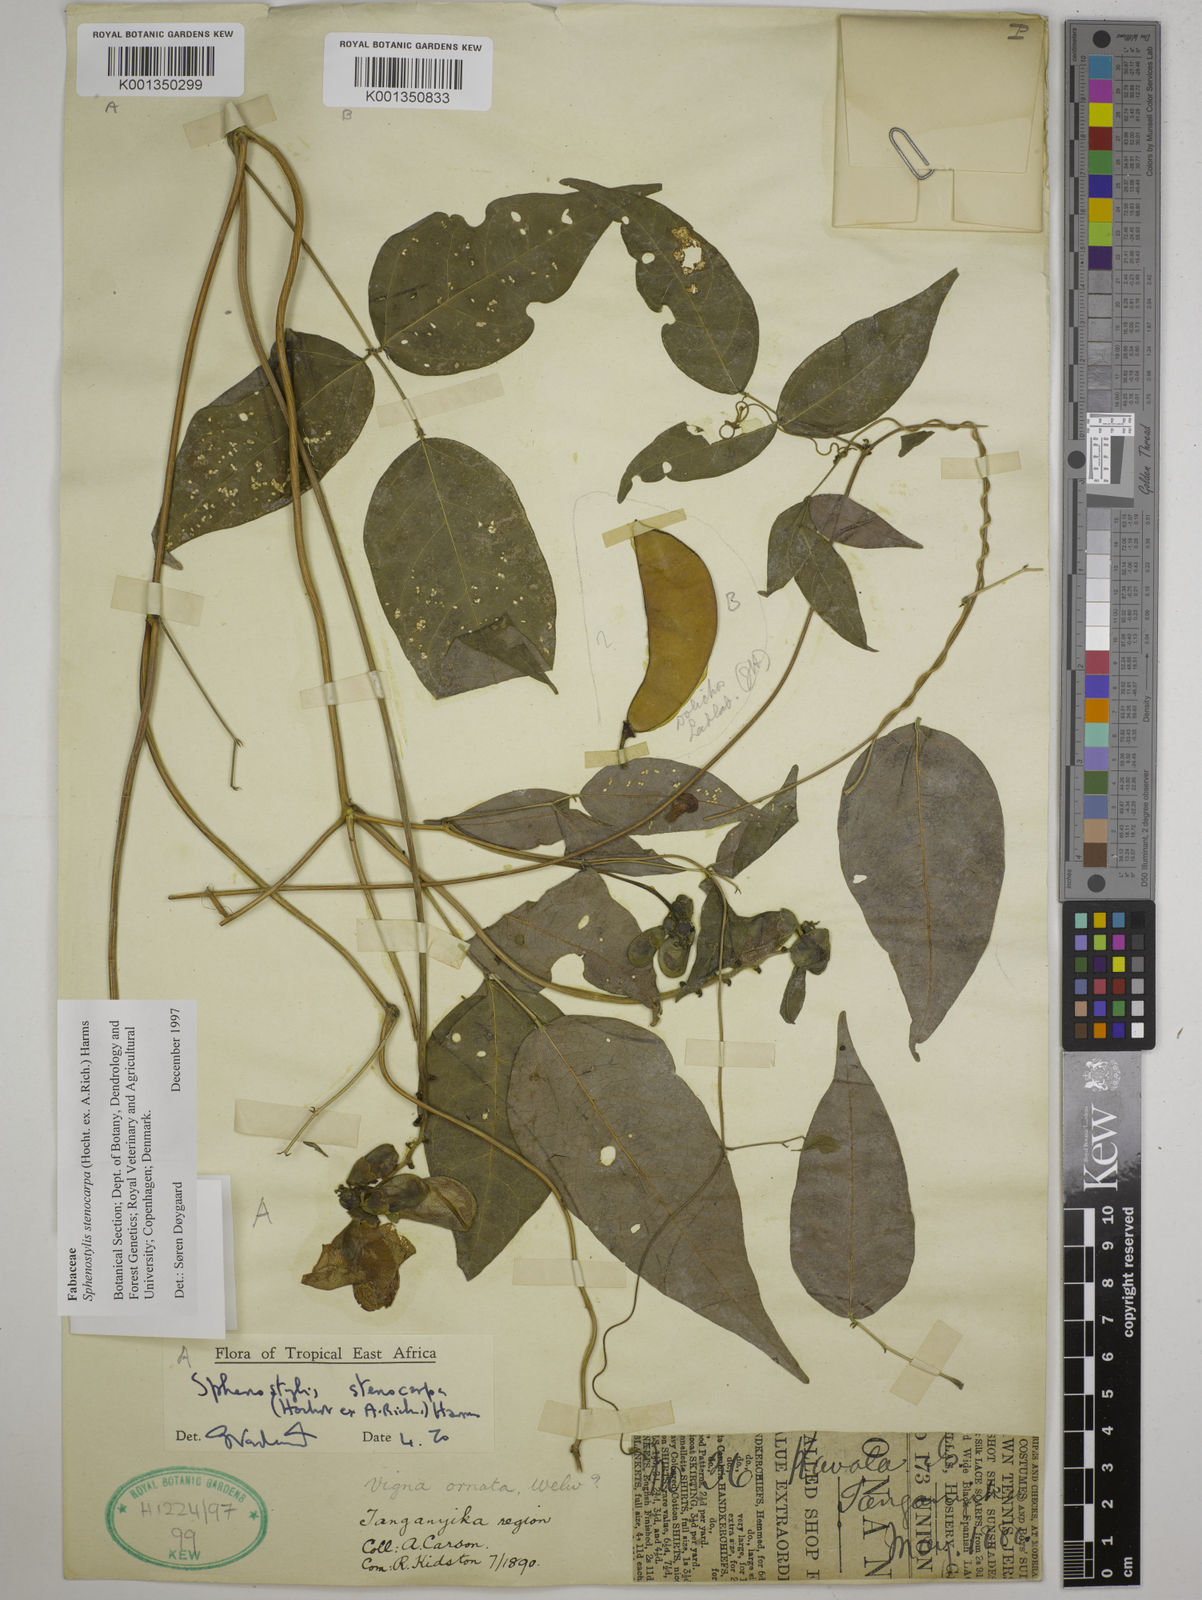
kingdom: Plantae
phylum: Tracheophyta
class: Magnoliopsida
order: Fabales
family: Fabaceae
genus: Sphenostylis
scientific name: Sphenostylis stenocarpa
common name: Yam-pea
